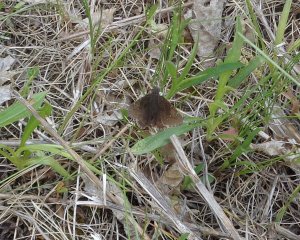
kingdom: Animalia
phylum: Arthropoda
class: Insecta
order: Lepidoptera
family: Hesperiidae
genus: Autochton
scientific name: Autochton
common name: Northern Cloudywing
